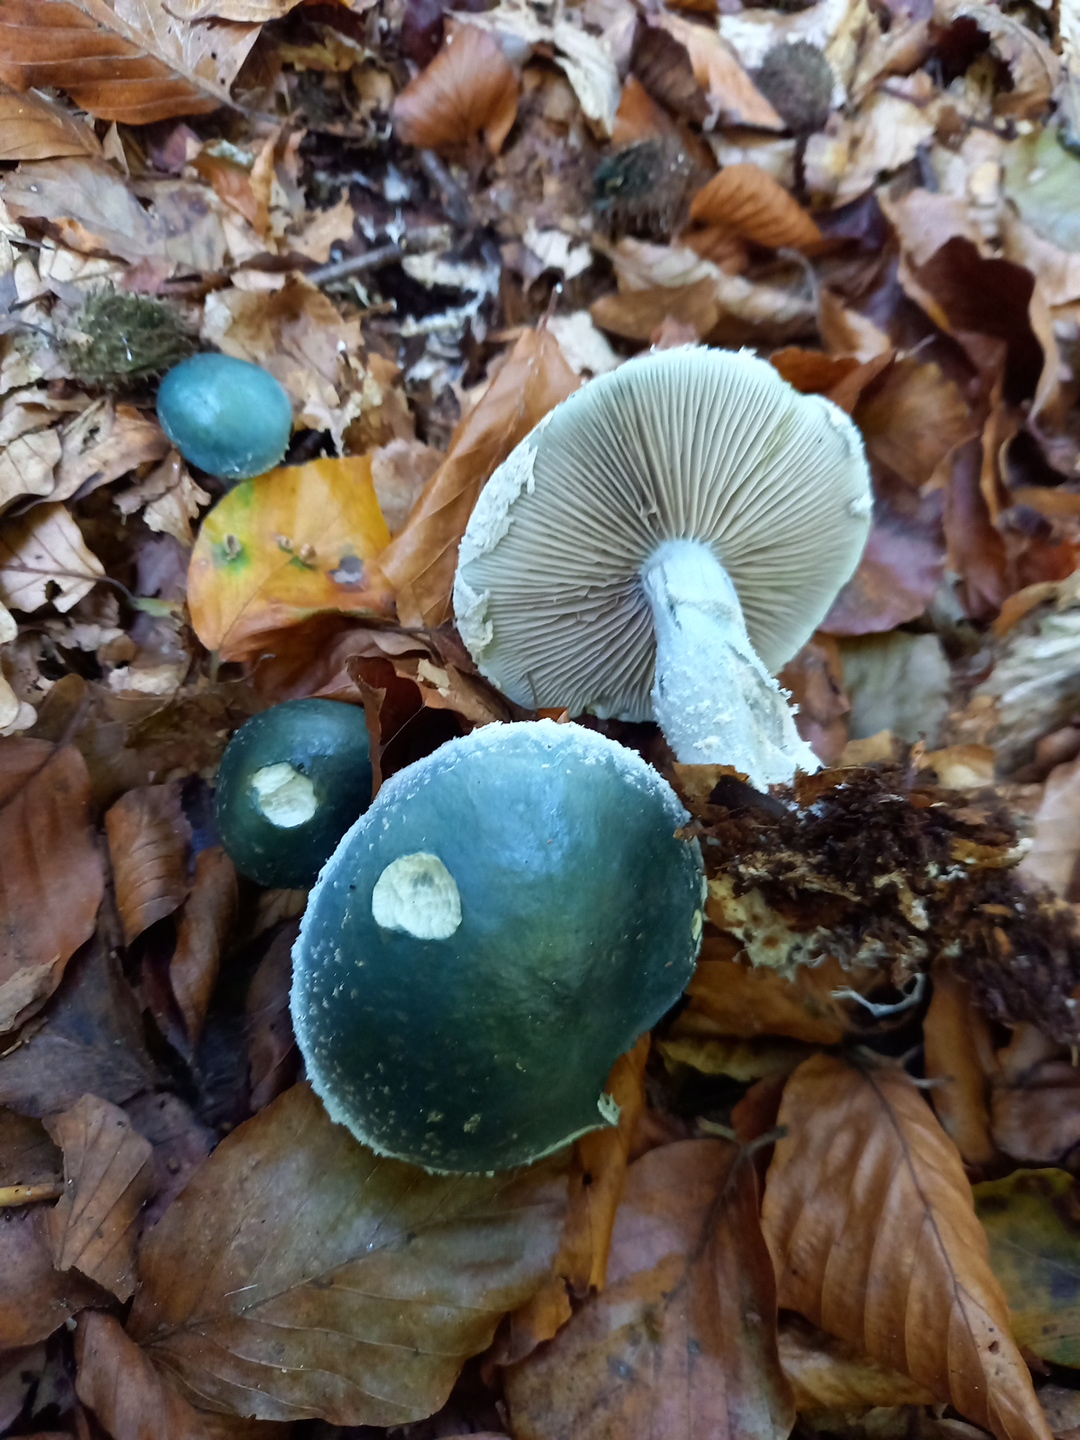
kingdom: Fungi
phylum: Basidiomycota
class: Agaricomycetes
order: Agaricales
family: Strophariaceae
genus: Stropharia
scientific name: Stropharia cyanea
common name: blågrøn bredblad
